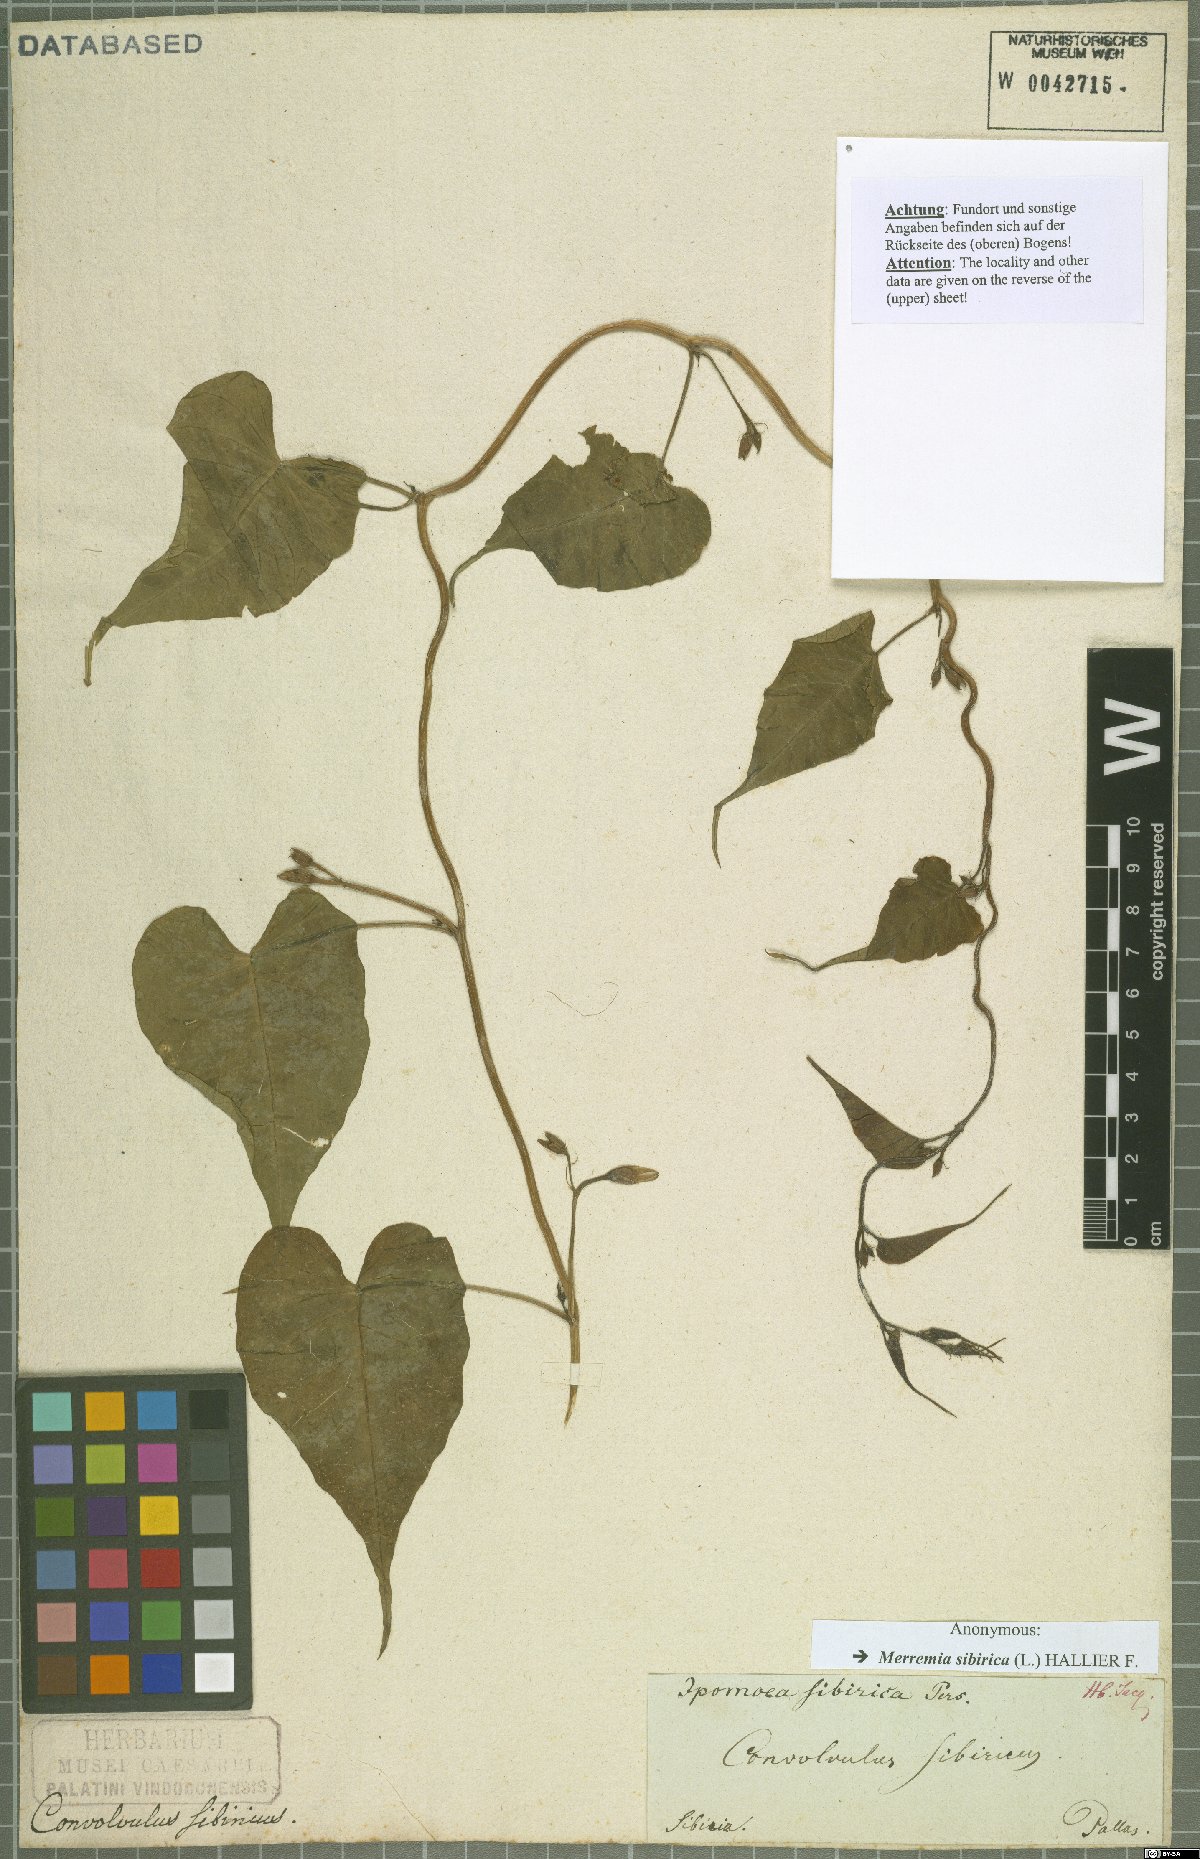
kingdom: Plantae
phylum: Tracheophyta
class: Magnoliopsida
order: Solanales
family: Convolvulaceae
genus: Merremia
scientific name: Merremia sibirica
